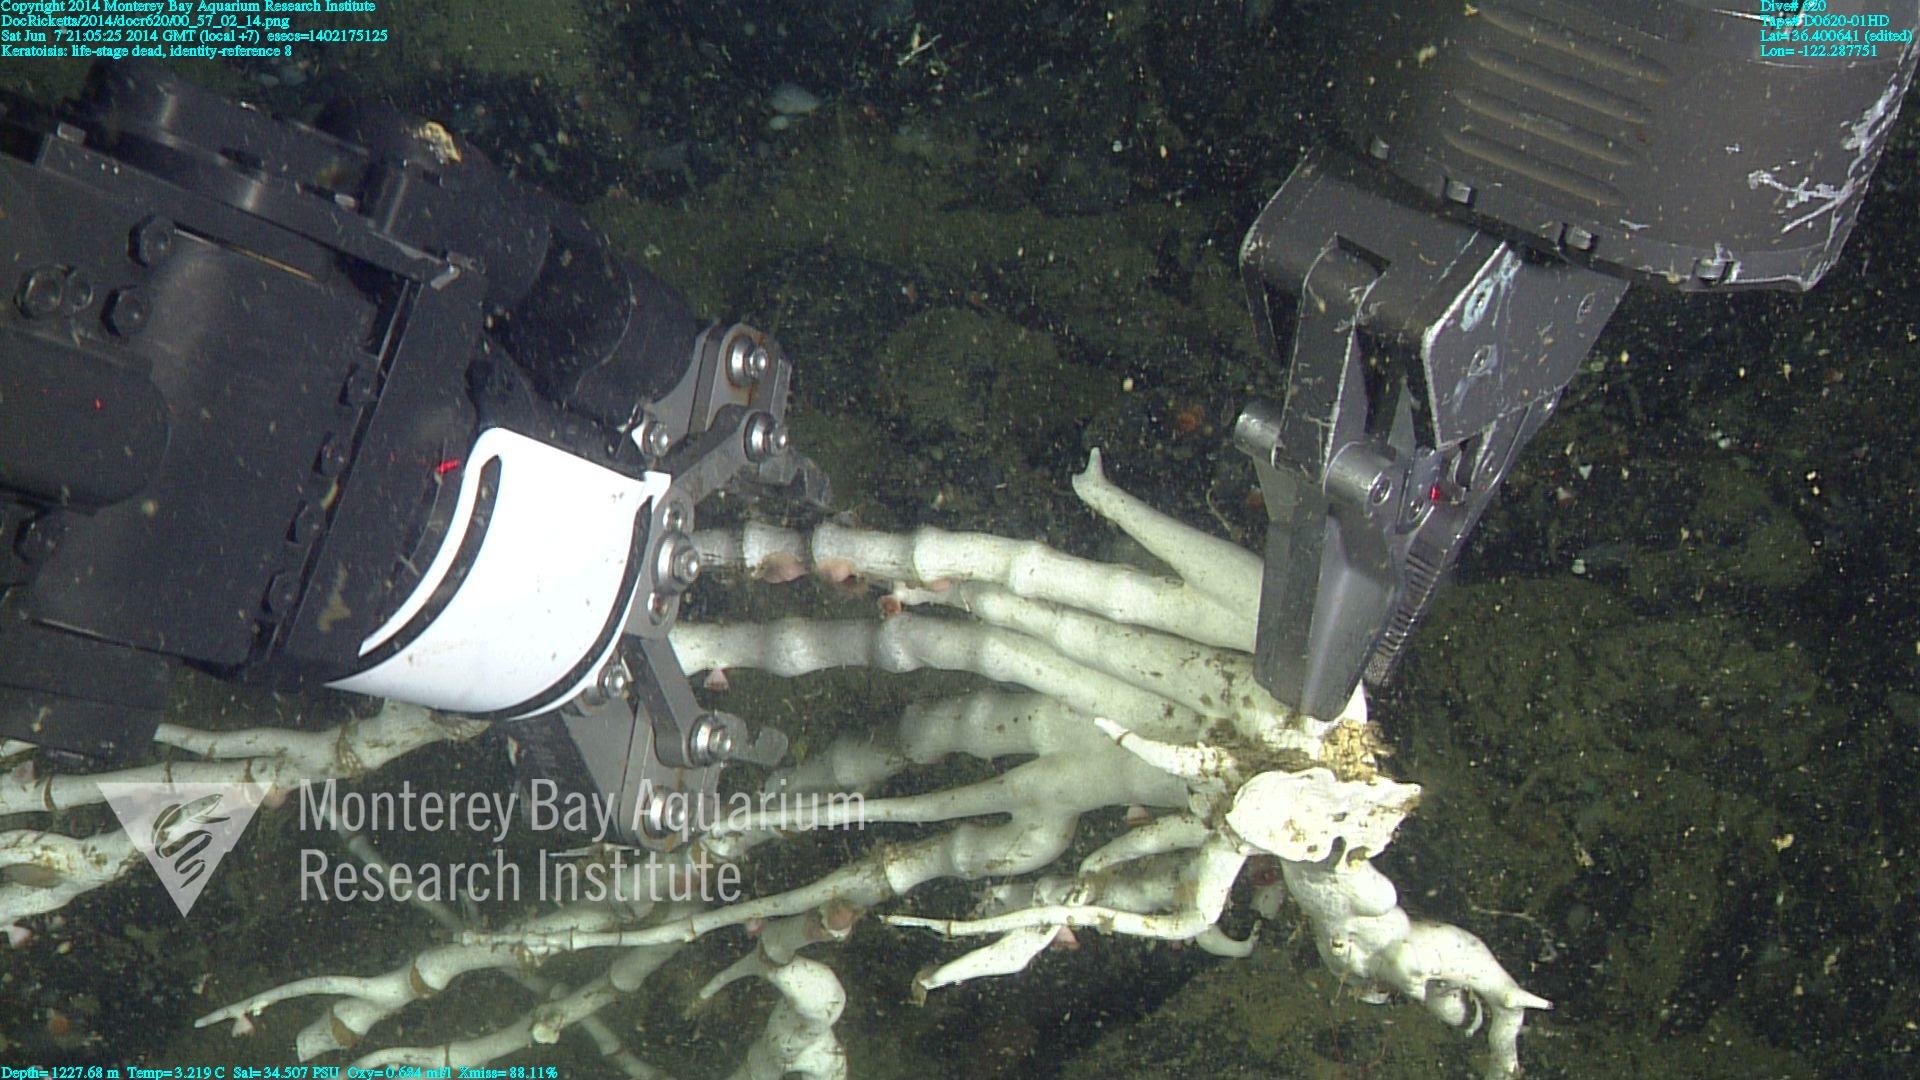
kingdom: Animalia
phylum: Cnidaria
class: Anthozoa
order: Scleralcyonacea
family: Keratoisididae
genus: Keratoisis
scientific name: Keratoisis
